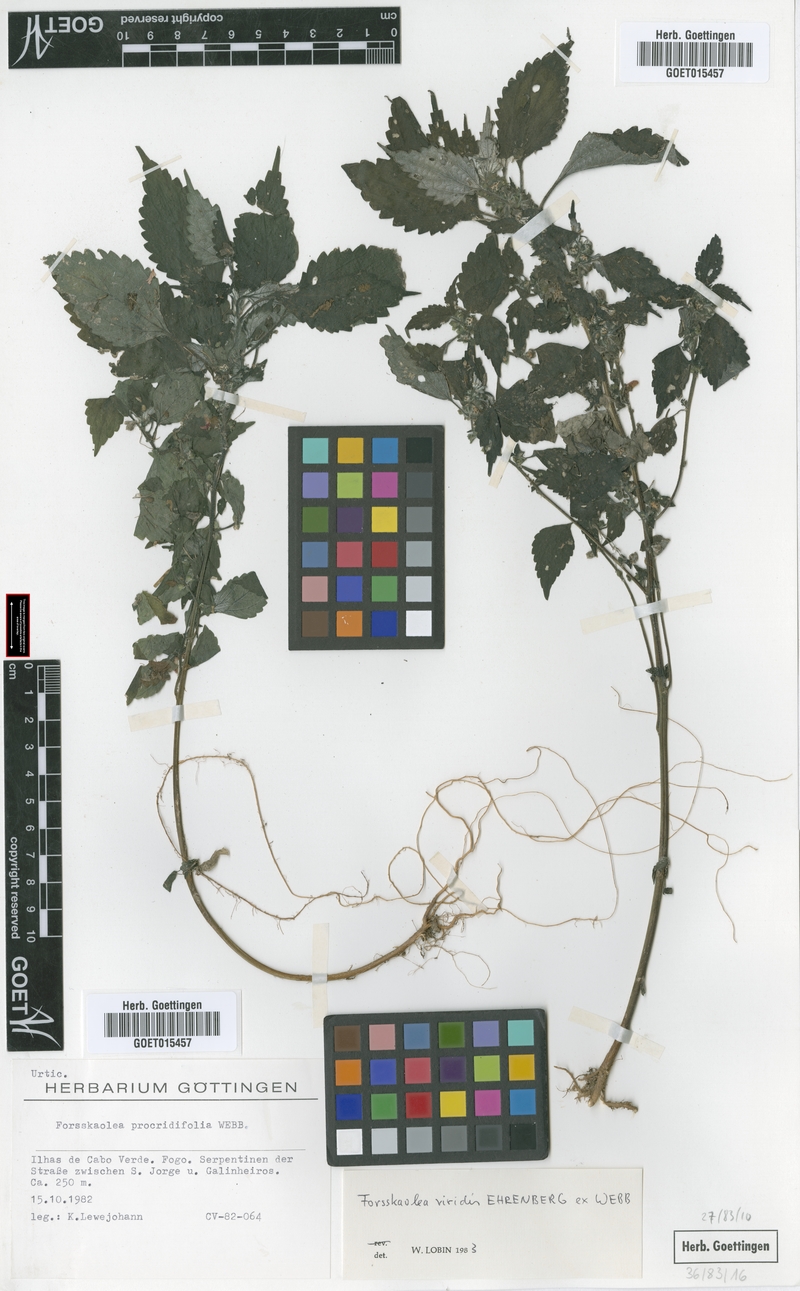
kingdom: Plantae
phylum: Tracheophyta
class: Magnoliopsida
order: Rosales
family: Urticaceae
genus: Forsskaolea
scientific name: Forsskaolea viridis
